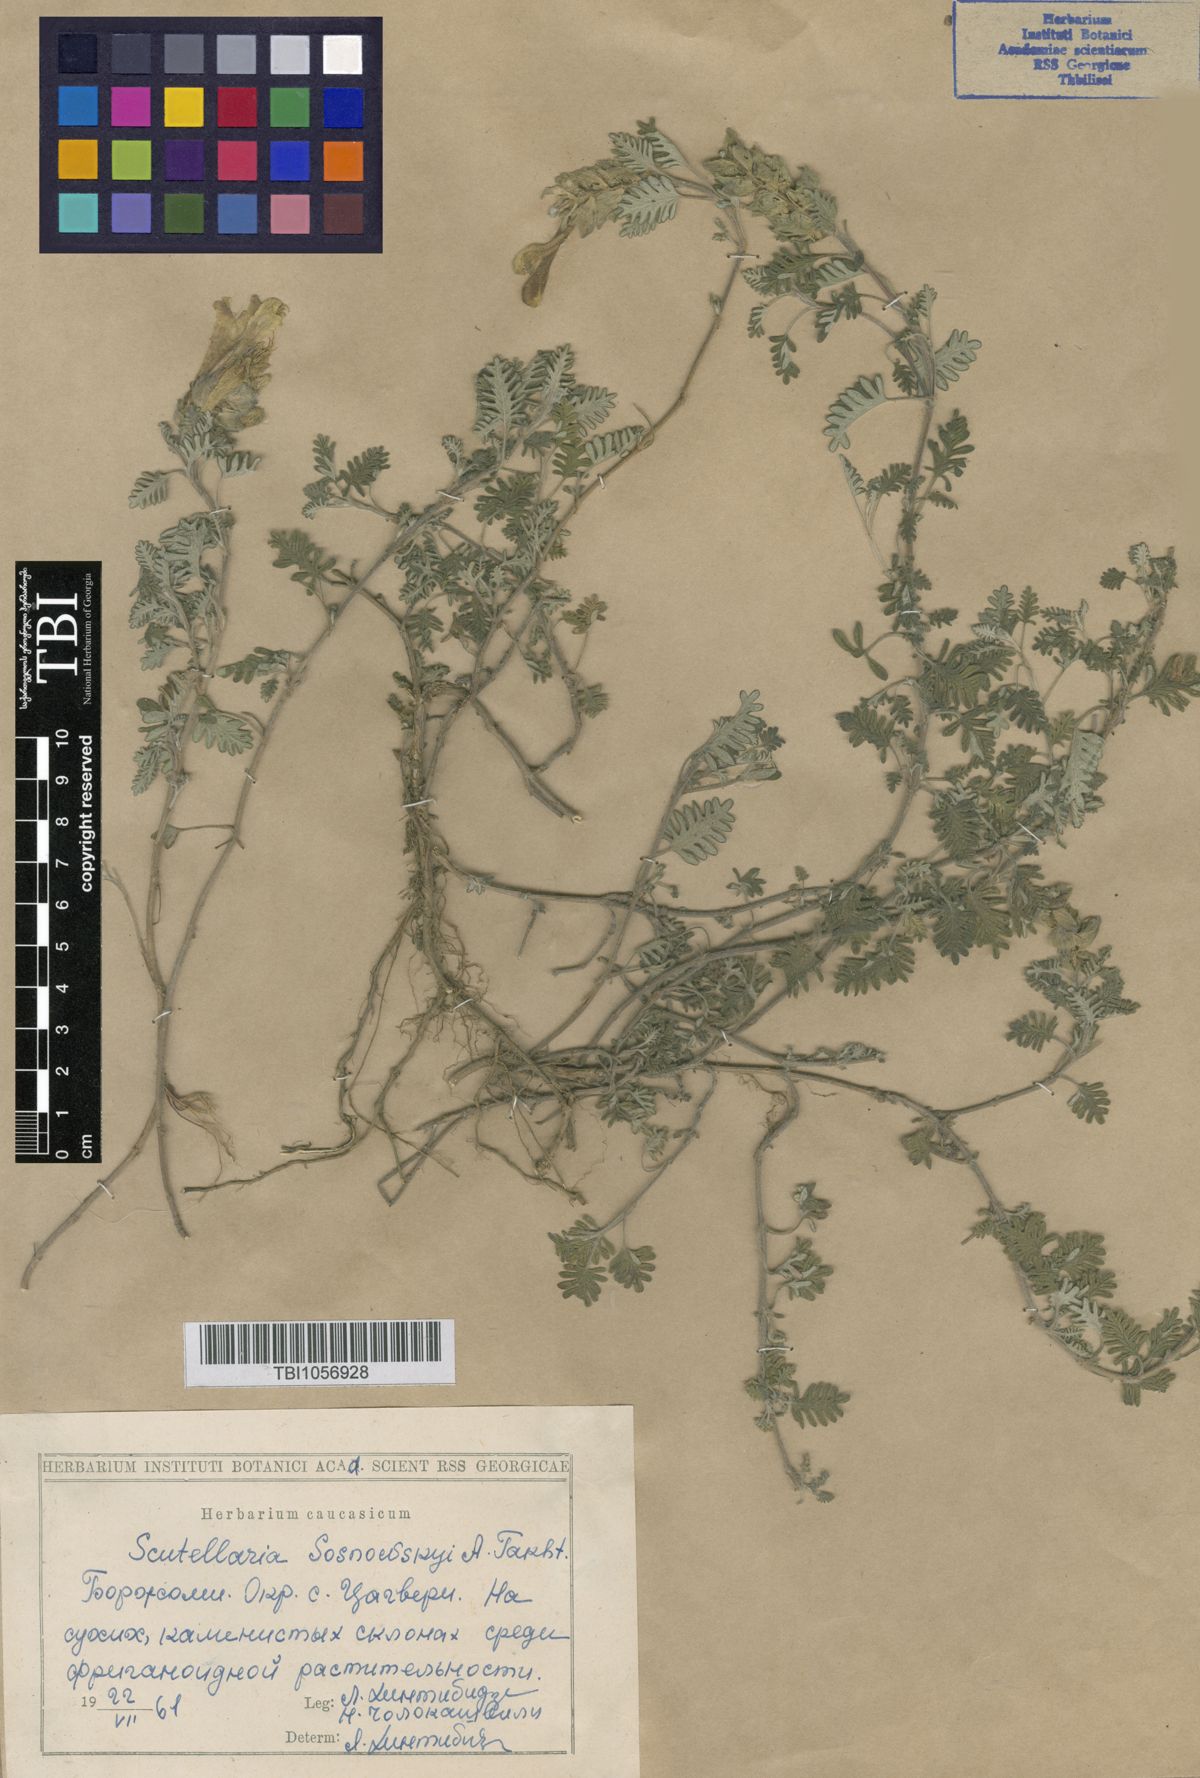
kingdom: Plantae
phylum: Tracheophyta
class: Magnoliopsida
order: Lamiales
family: Lamiaceae
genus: Scutellaria
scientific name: Scutellaria sosnowskyi
